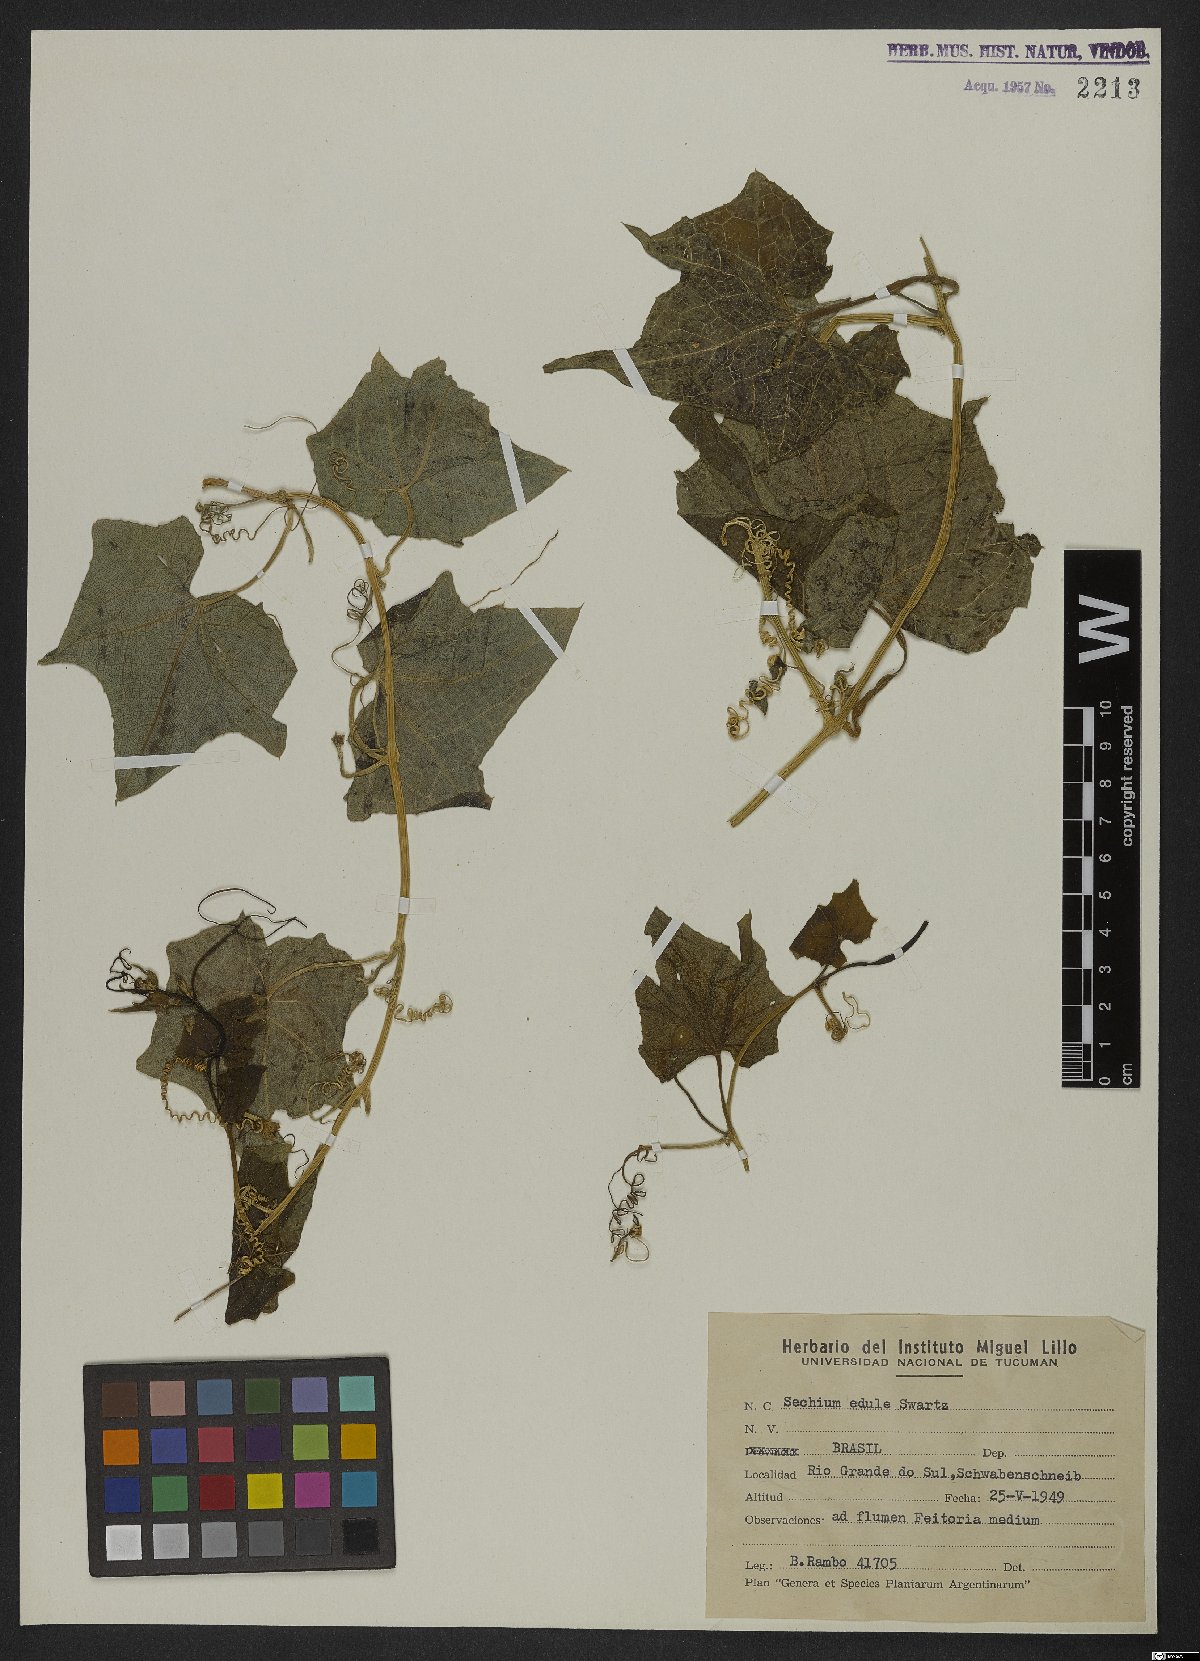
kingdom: Plantae
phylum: Tracheophyta
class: Magnoliopsida
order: Cucurbitales
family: Cucurbitaceae
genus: Sechium
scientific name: Sechium edule
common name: Chayote
